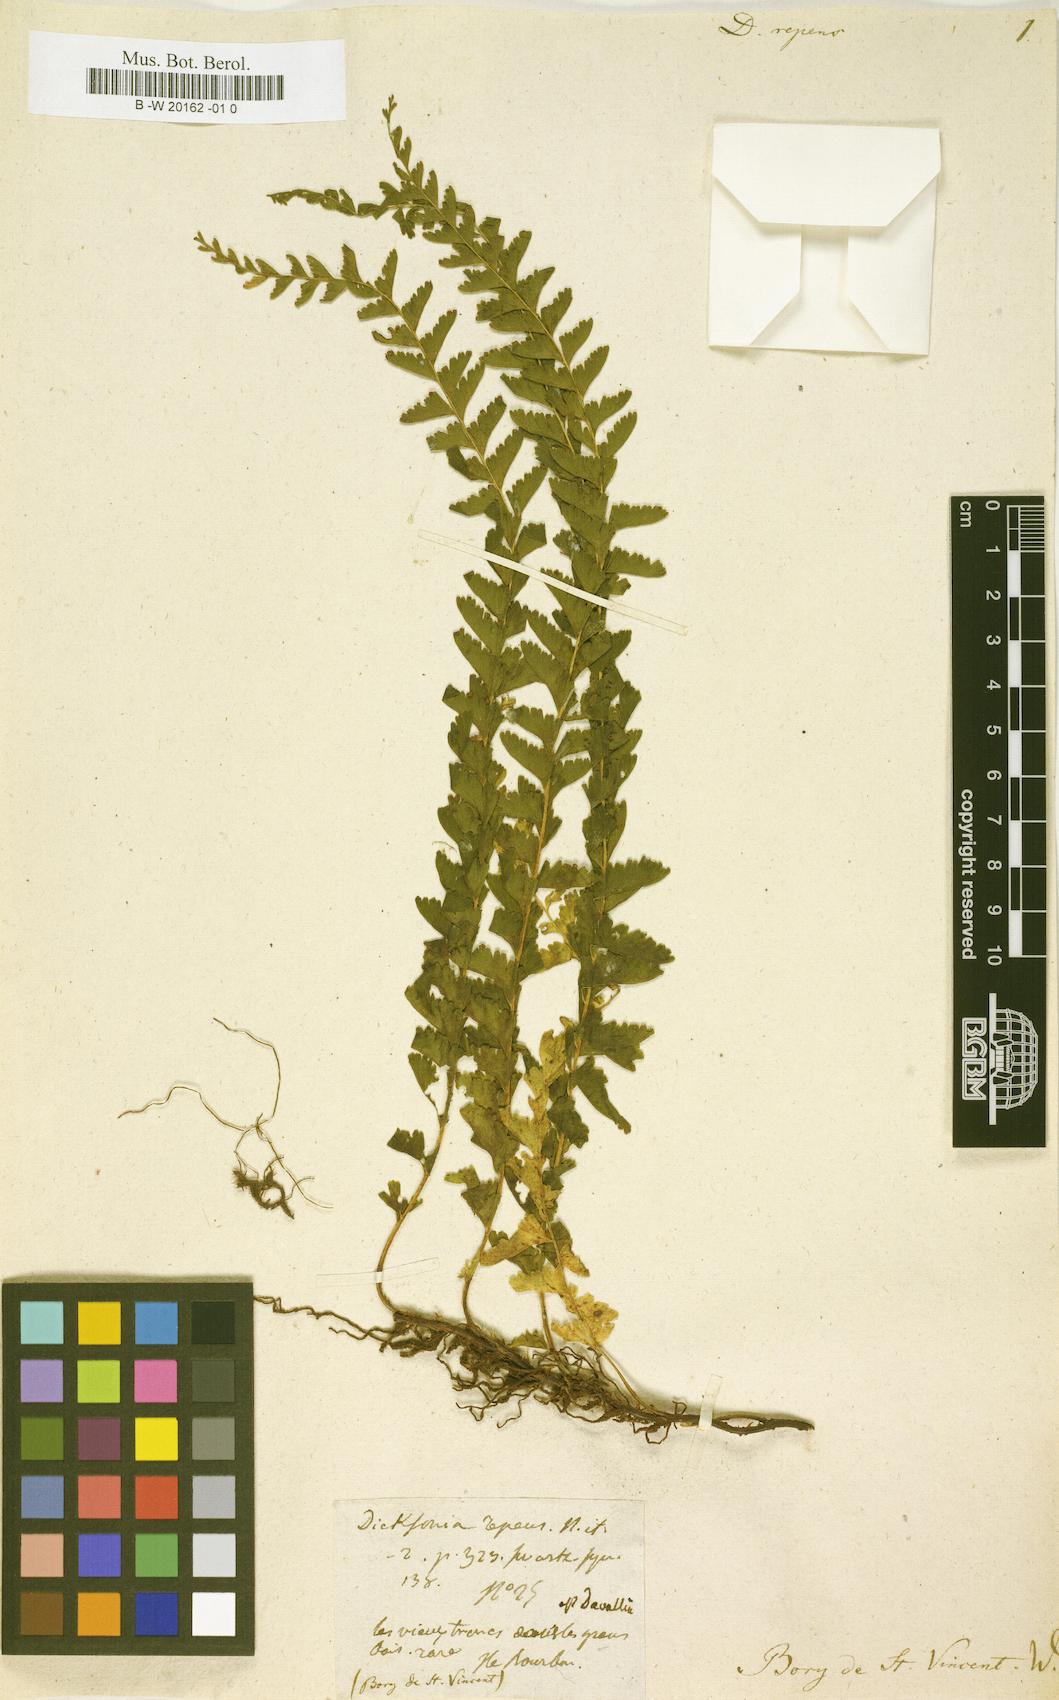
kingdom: Plantae
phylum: Tracheophyta
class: Polypodiopsida
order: Polypodiales
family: Lindsaeaceae
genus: Lindsaea
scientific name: Lindsaea repens
